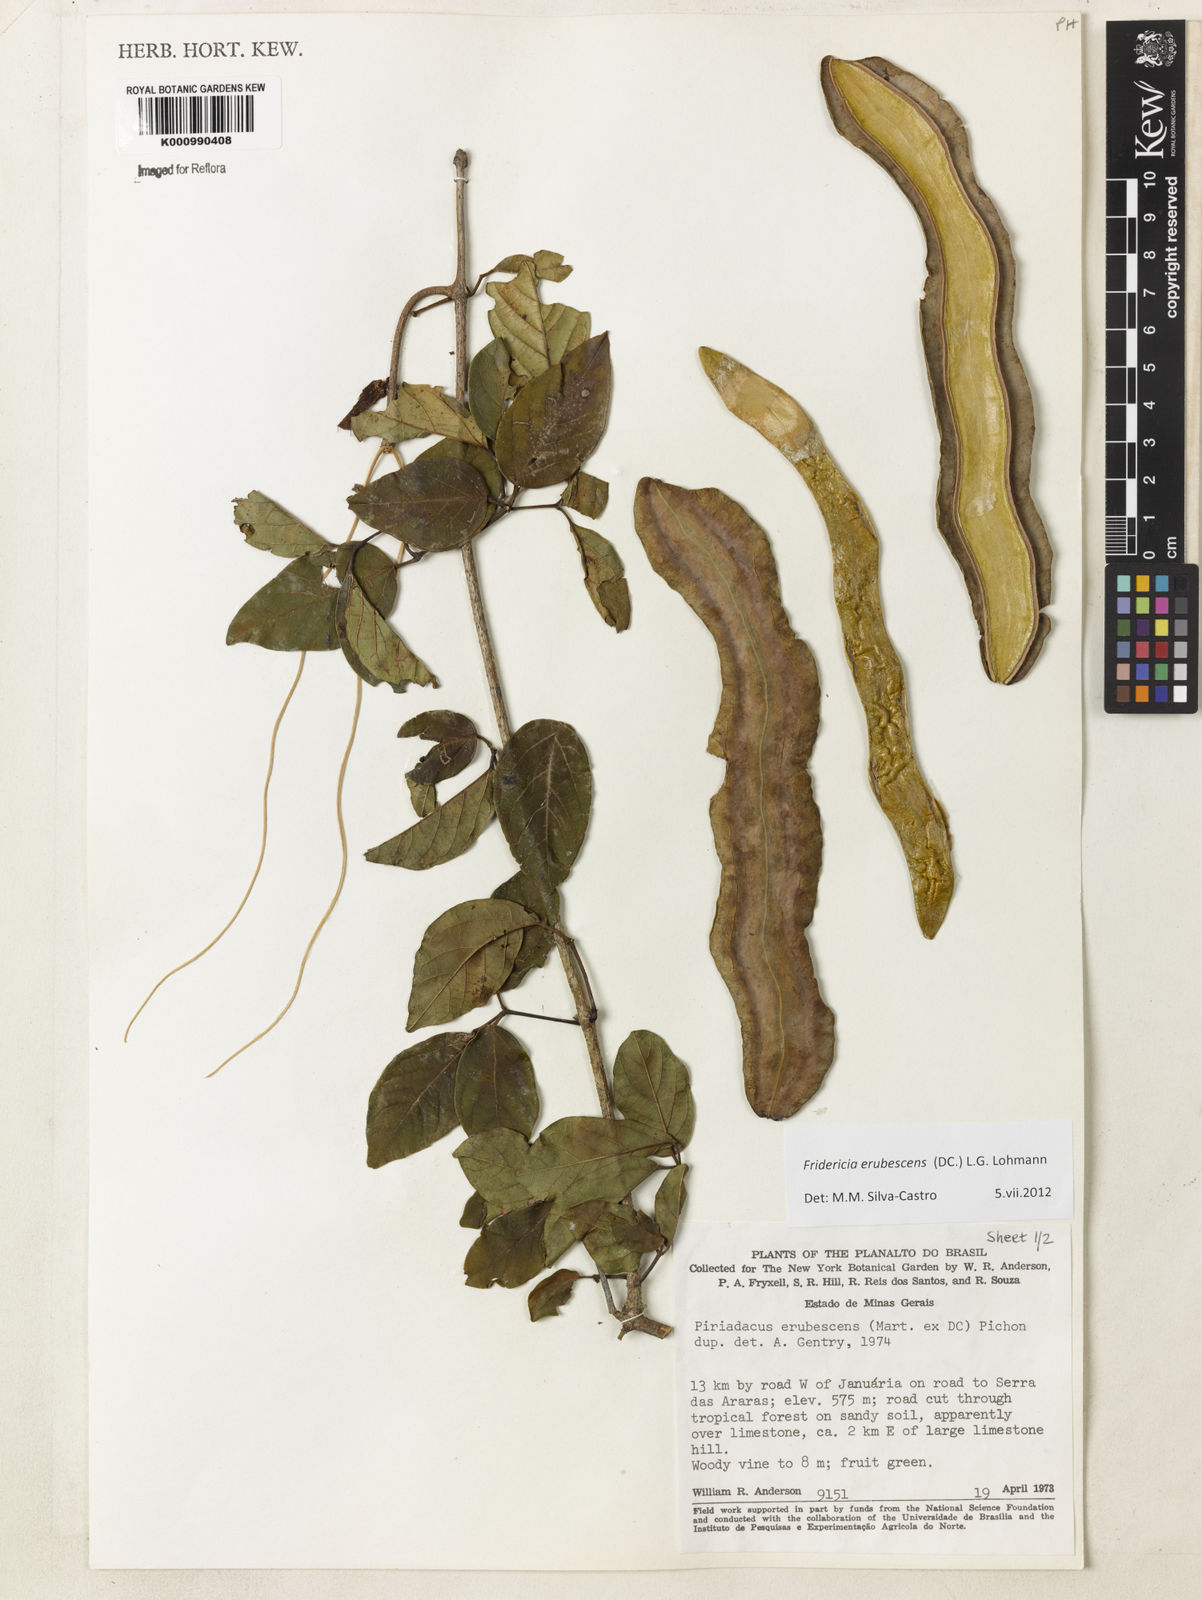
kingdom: Plantae
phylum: Tracheophyta
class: Magnoliopsida
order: Lamiales
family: Bignoniaceae
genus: Fridericia
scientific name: Fridericia erubescens
